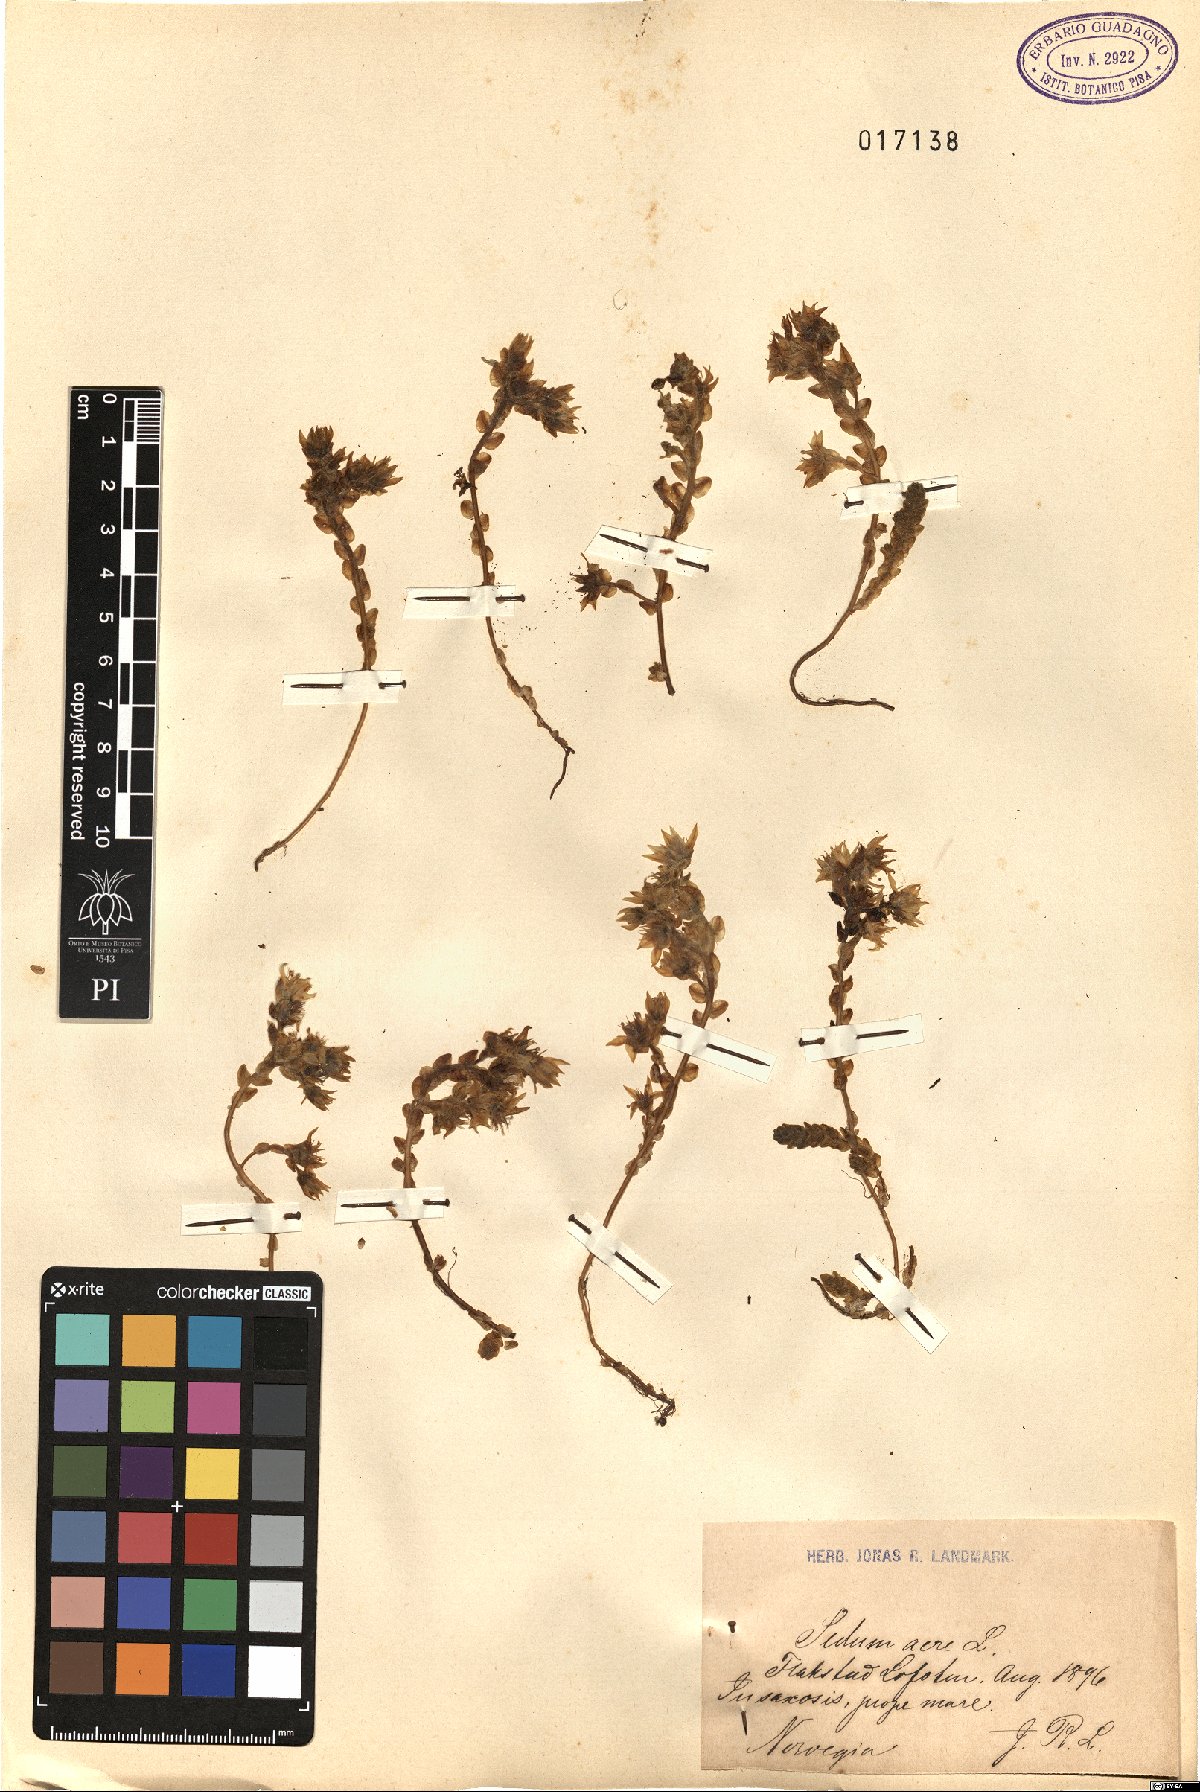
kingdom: Plantae
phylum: Tracheophyta
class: Magnoliopsida
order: Saxifragales
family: Crassulaceae
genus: Sedum
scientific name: Sedum acre
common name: Biting stonecrop
